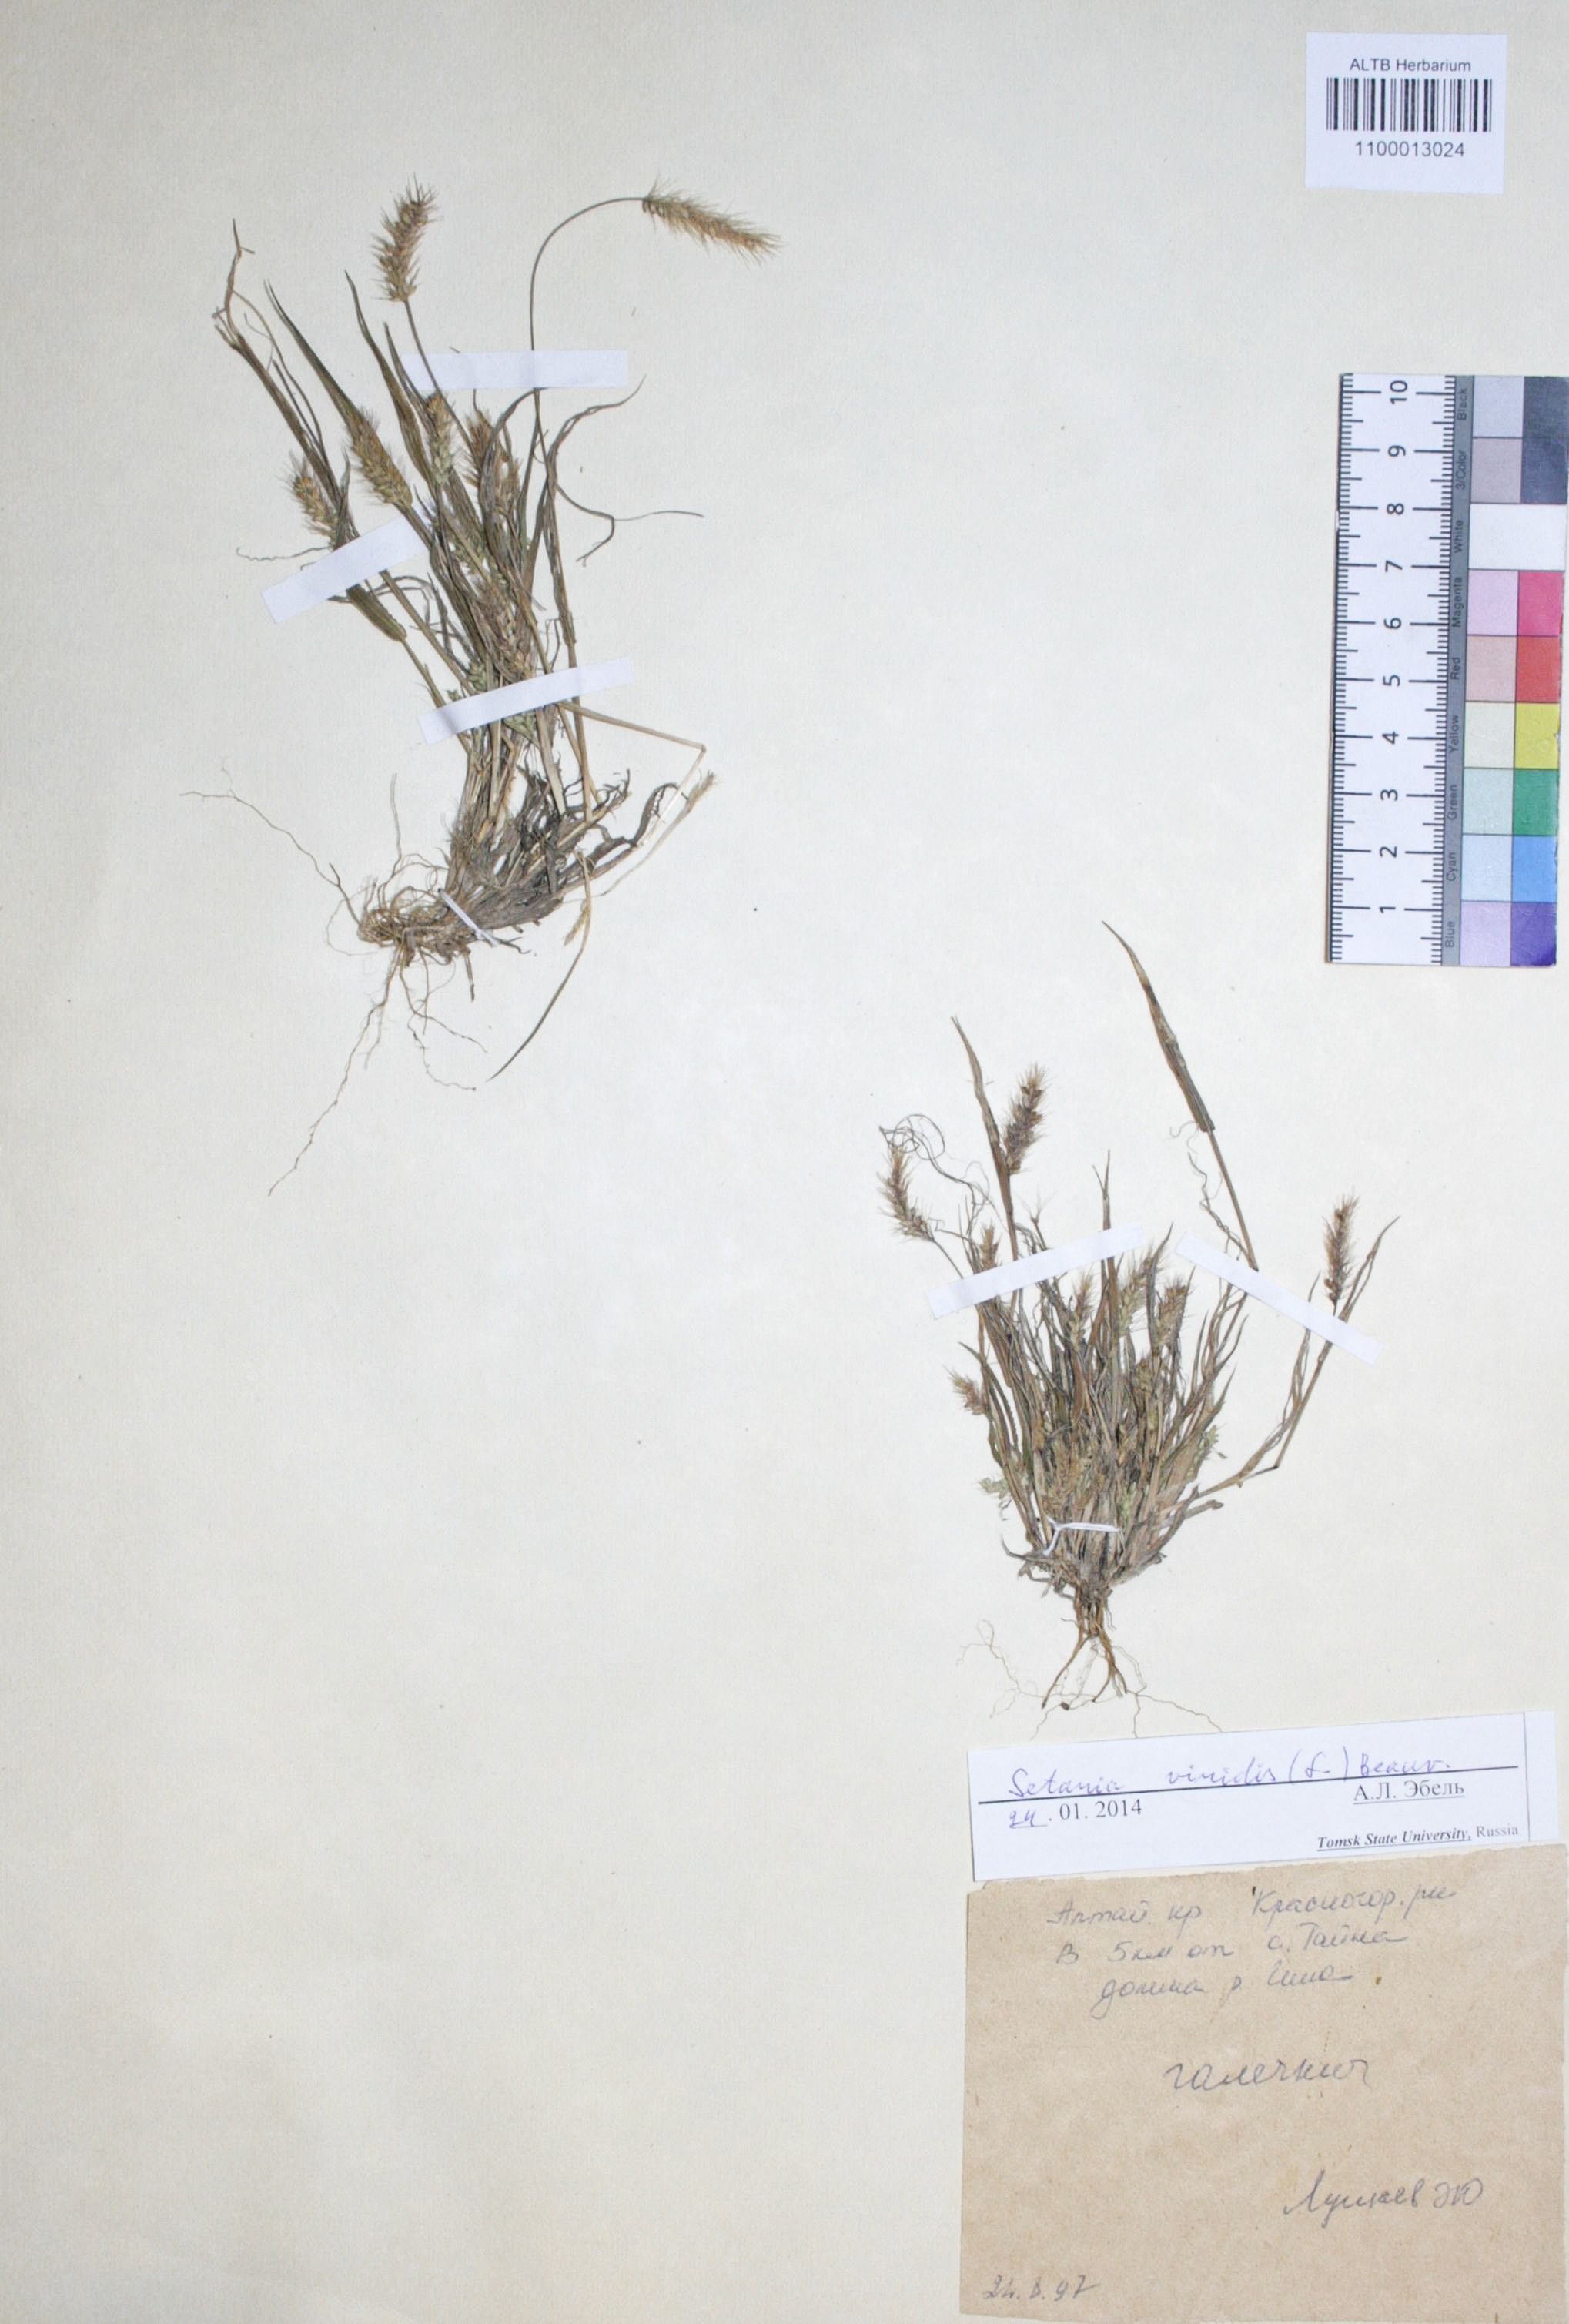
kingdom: Plantae
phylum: Tracheophyta
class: Liliopsida
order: Poales
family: Poaceae
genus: Setaria
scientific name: Setaria viridis
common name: Green bristlegrass
